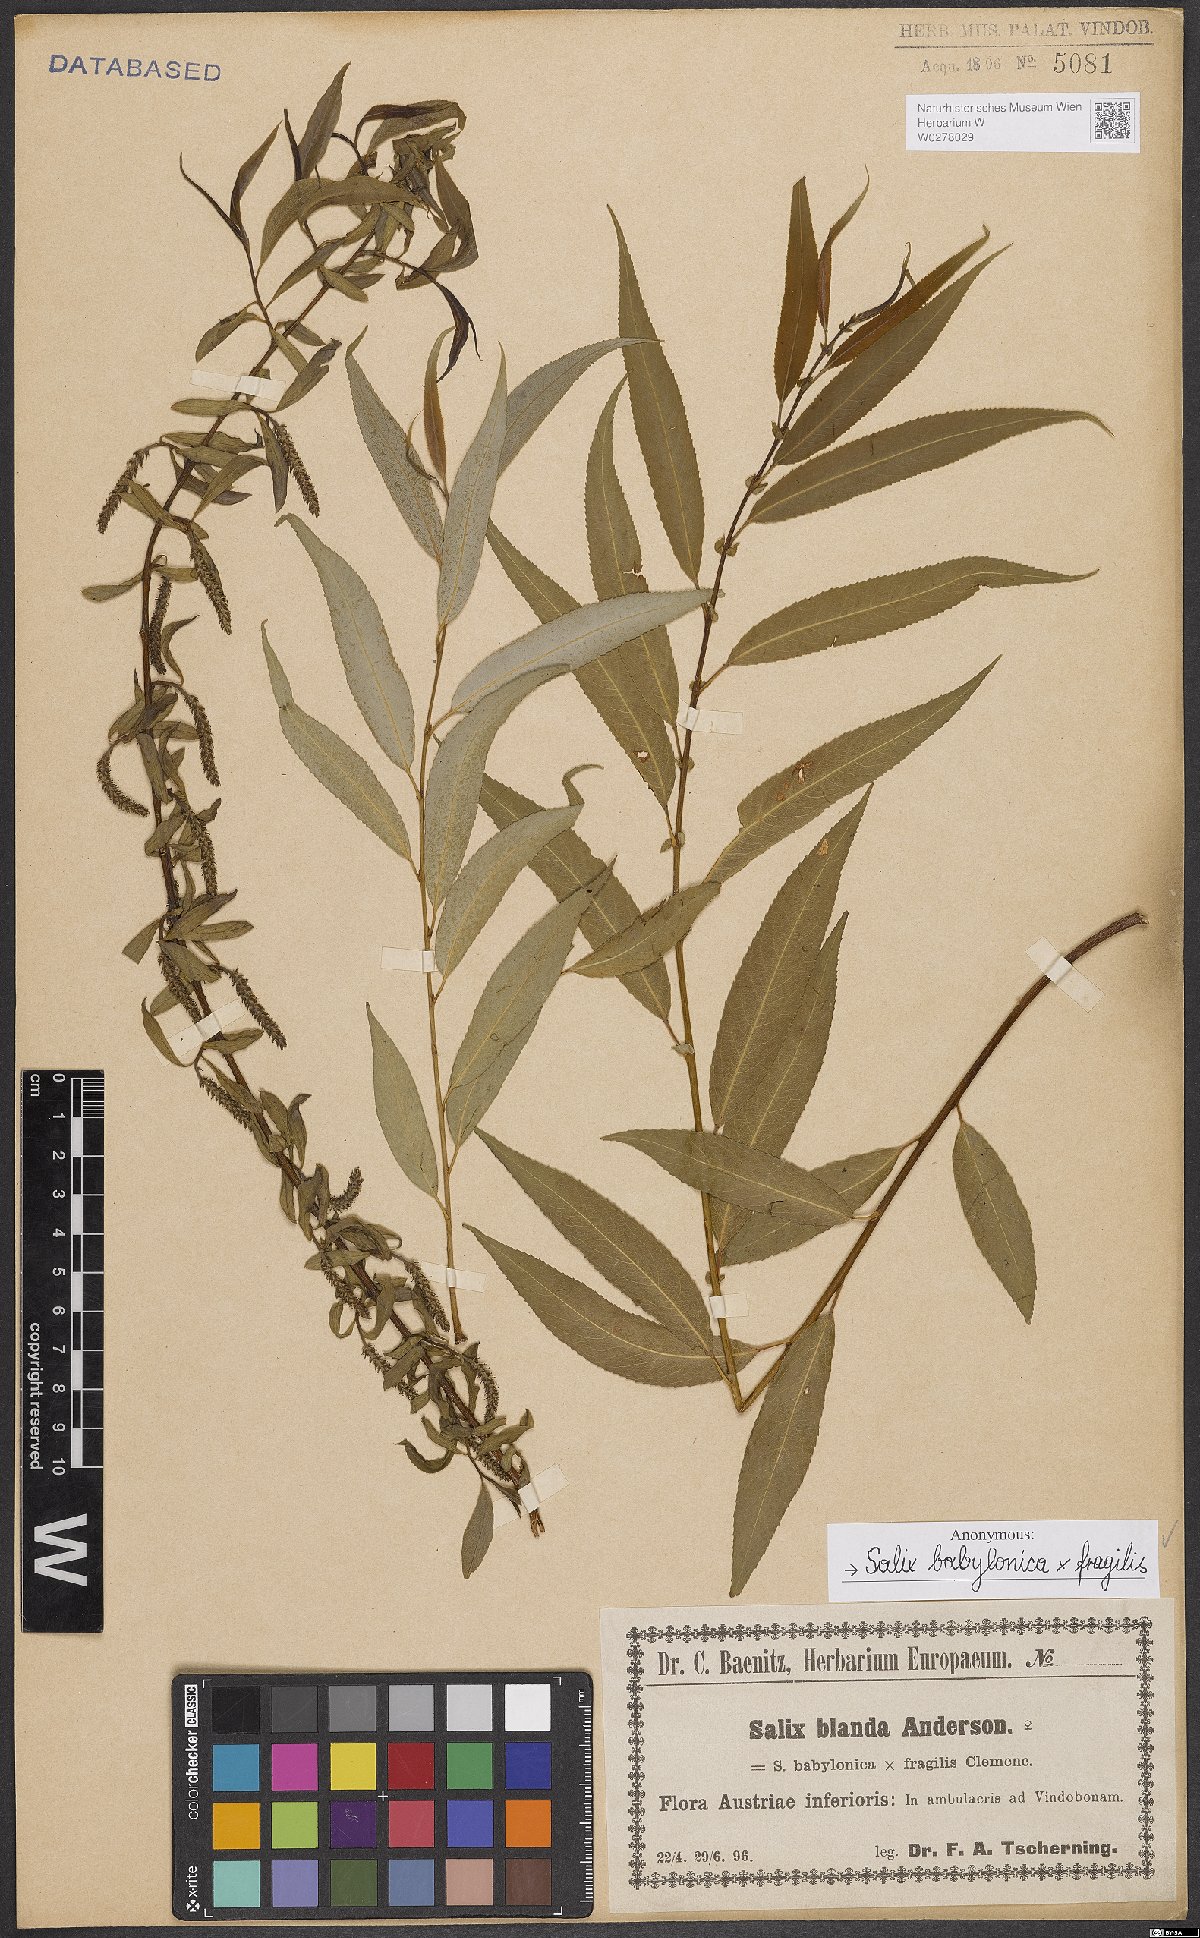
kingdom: Plantae
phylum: Tracheophyta
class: Magnoliopsida
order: Malpighiales
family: Salicaceae
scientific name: Salicaceae
